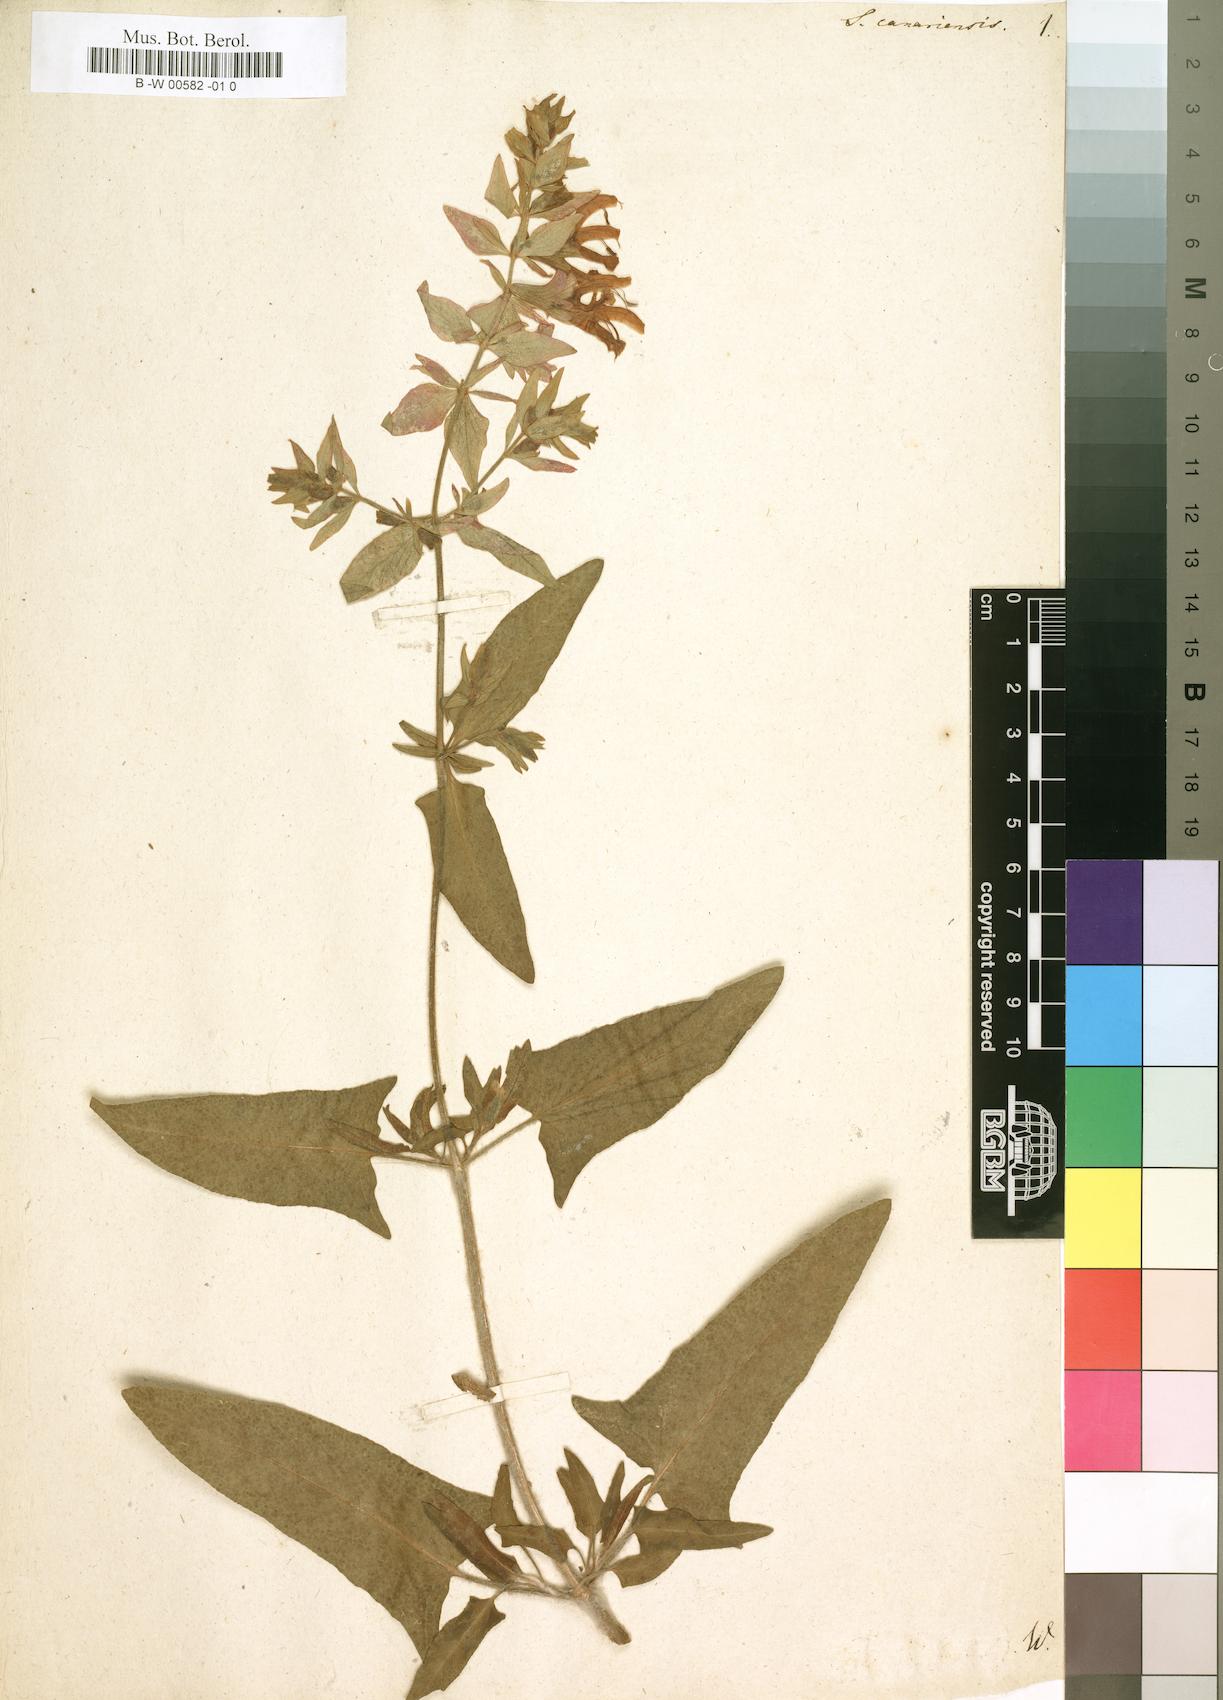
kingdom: Plantae
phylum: Tracheophyta
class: Magnoliopsida
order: Lamiales
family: Lamiaceae
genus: Salvia
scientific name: Salvia canariensis
